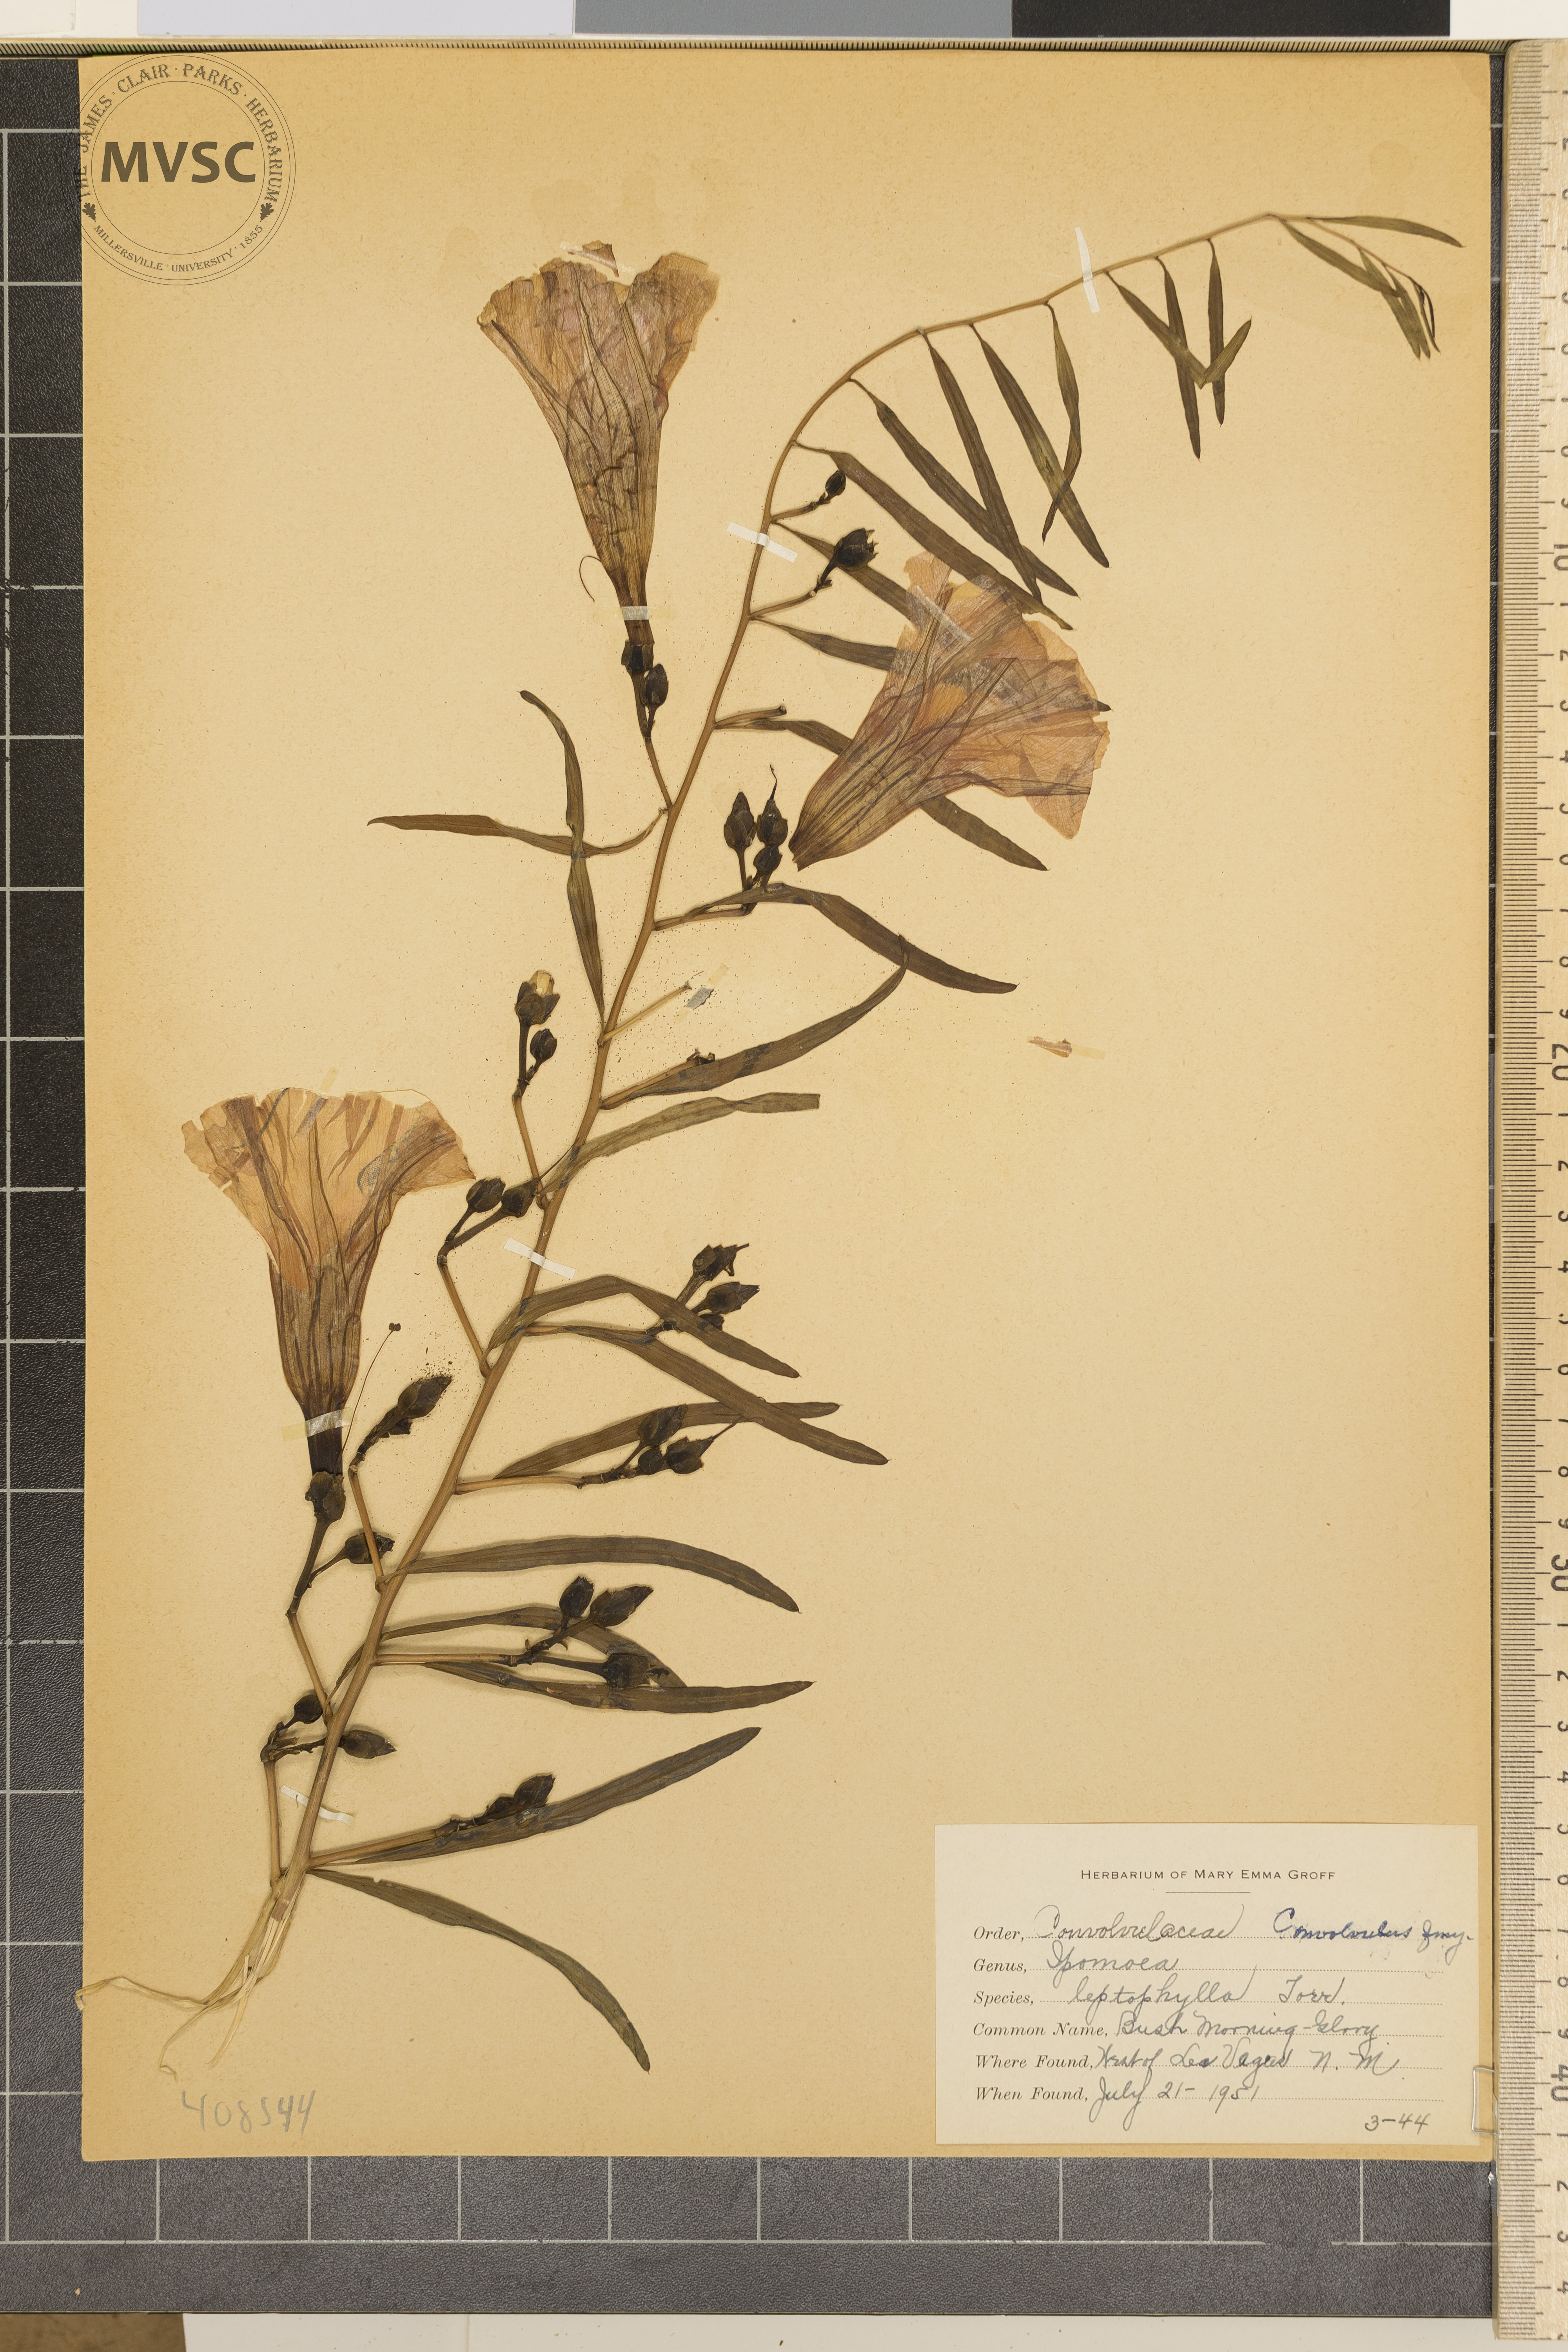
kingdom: Plantae
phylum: Tracheophyta
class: Magnoliopsida
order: Solanales
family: Convolvulaceae
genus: Ipomoea
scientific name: Ipomoea leptophylla
